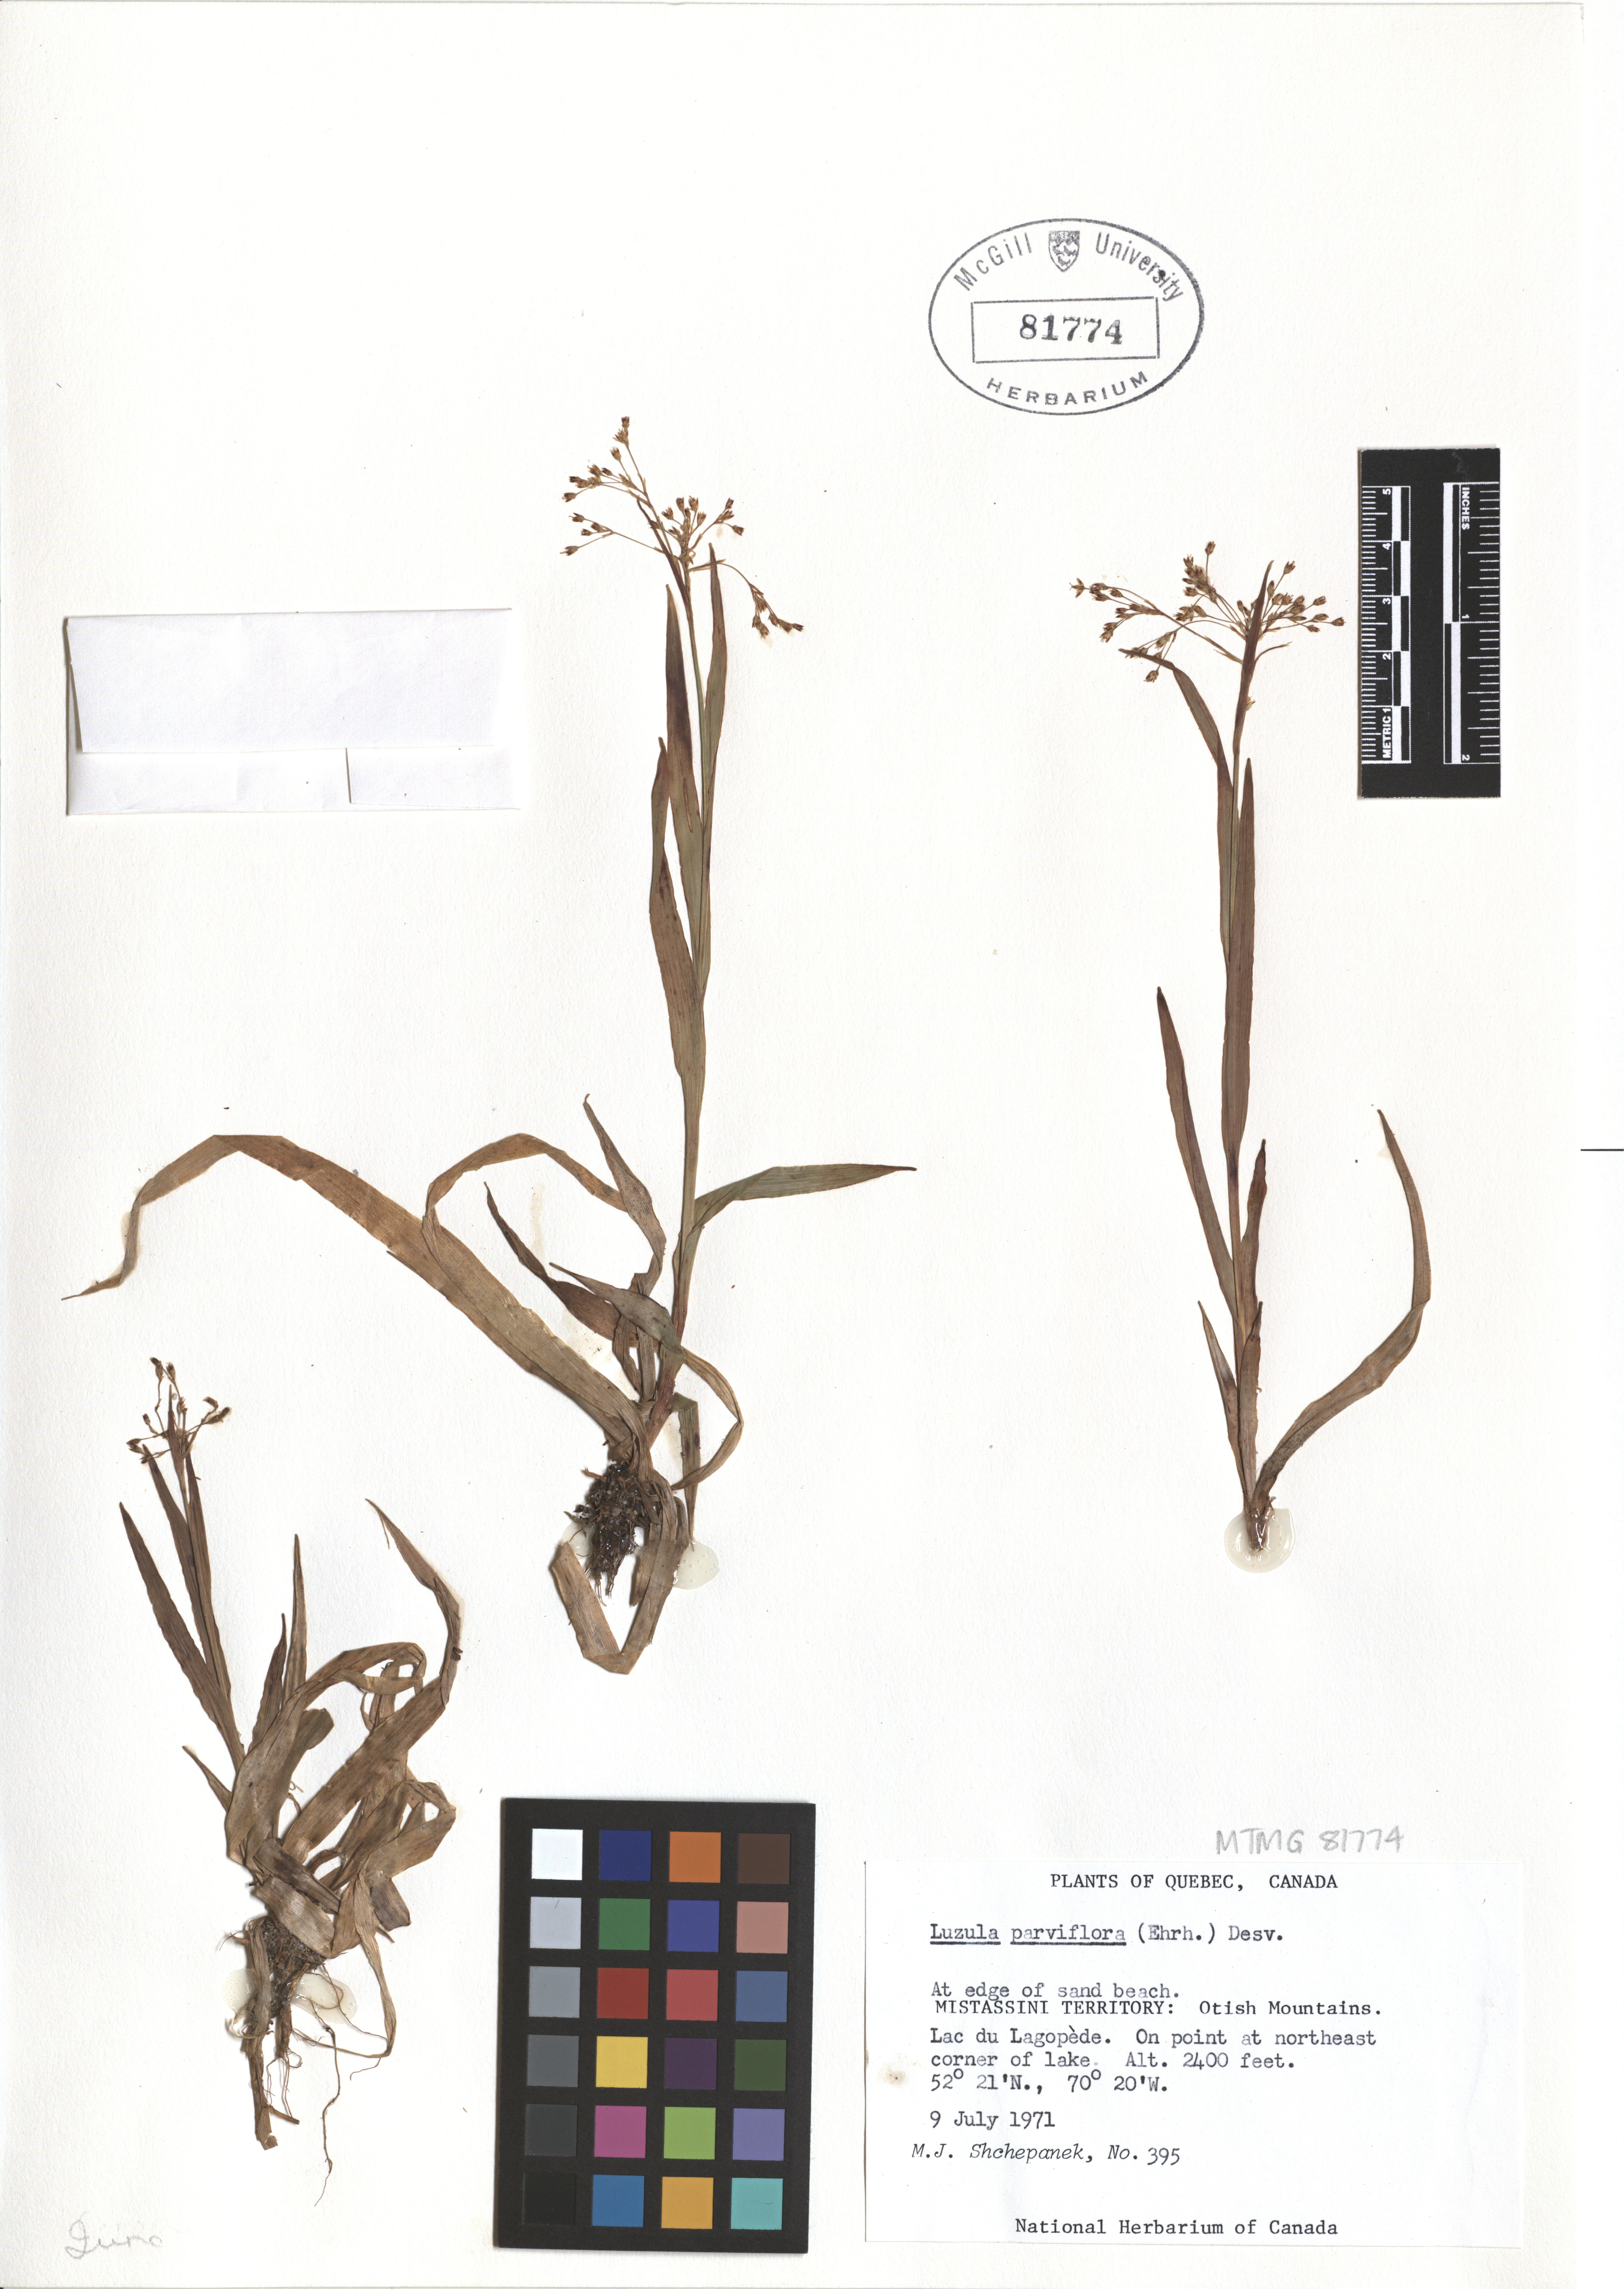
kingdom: Plantae
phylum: Tracheophyta
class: Liliopsida
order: Poales
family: Juncaceae
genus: Luzula
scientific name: Luzula parviflora
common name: Millet woodrush
